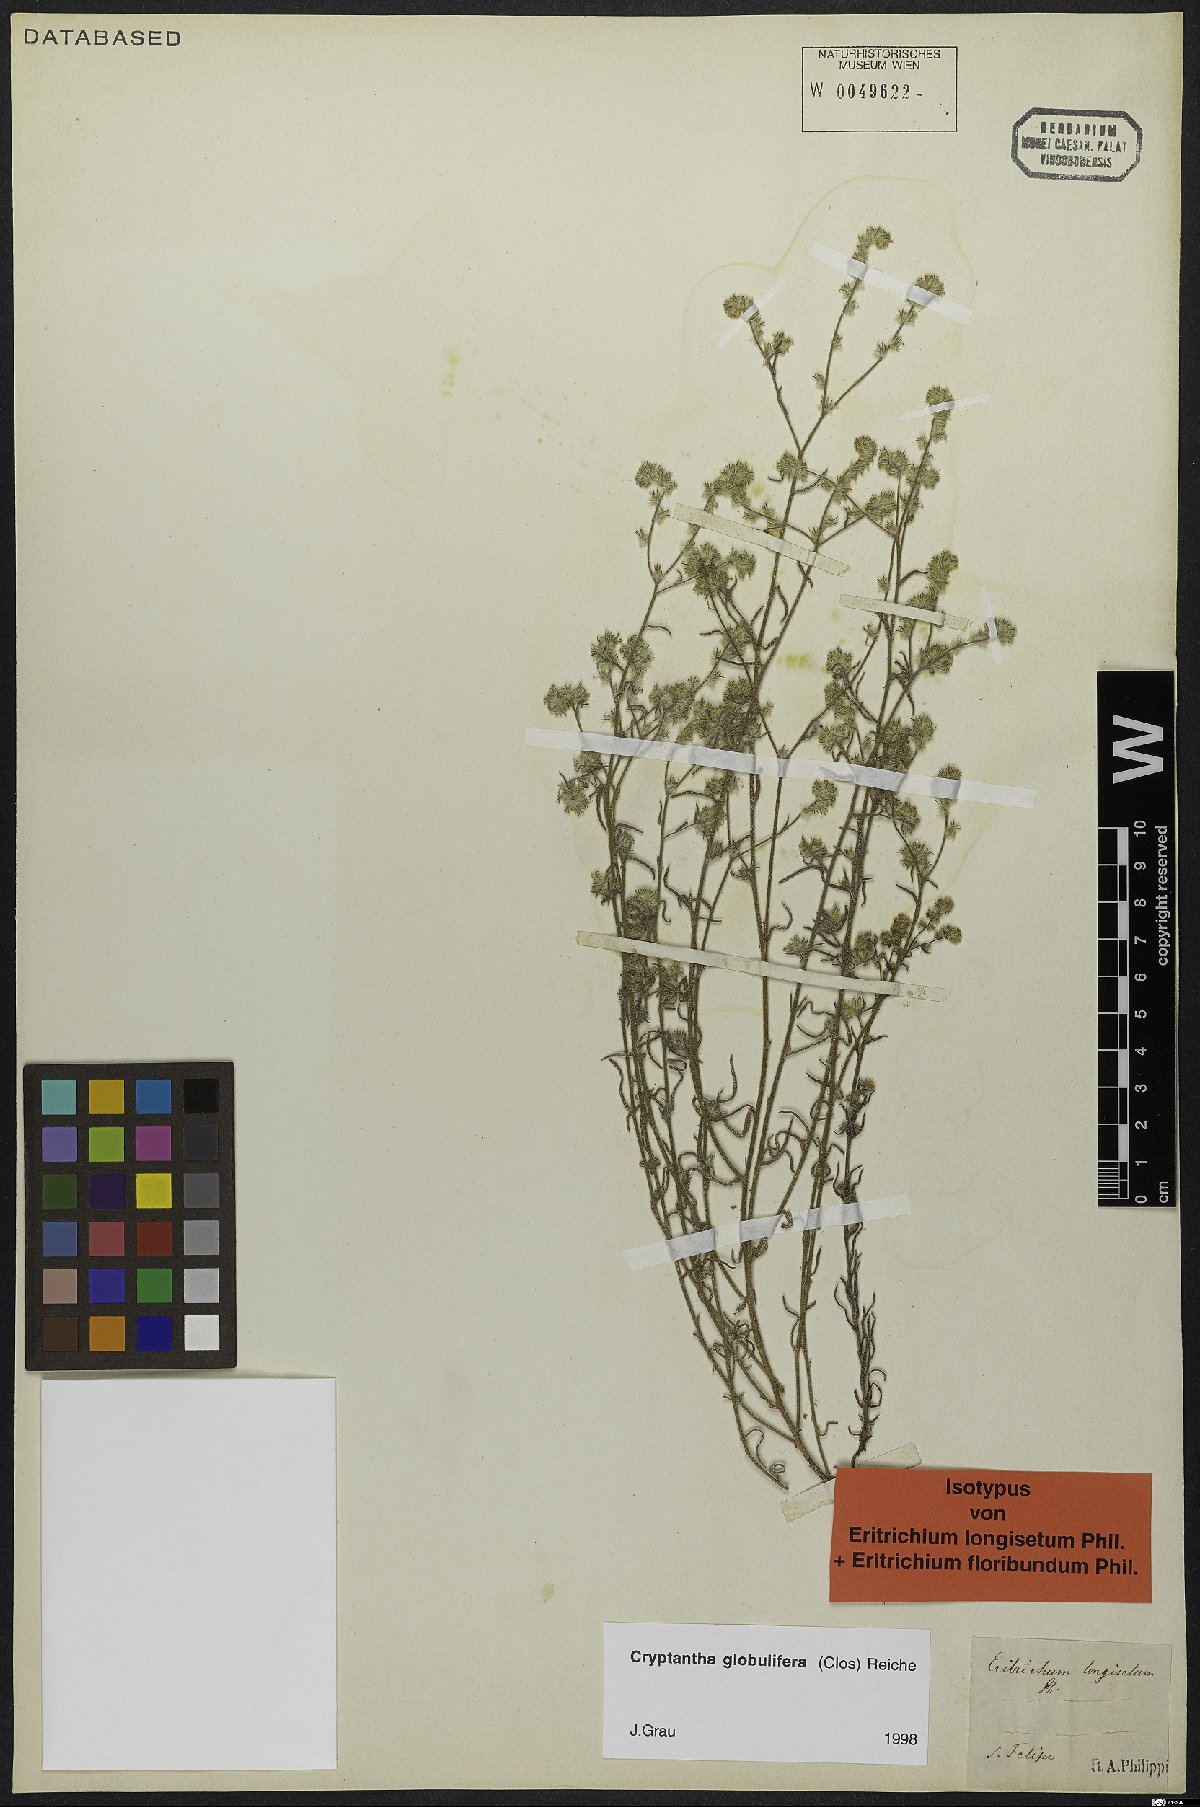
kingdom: Plantae
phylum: Tracheophyta
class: Magnoliopsida
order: Boraginales
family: Boraginaceae
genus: Cryptantha
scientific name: Cryptantha globulifera
